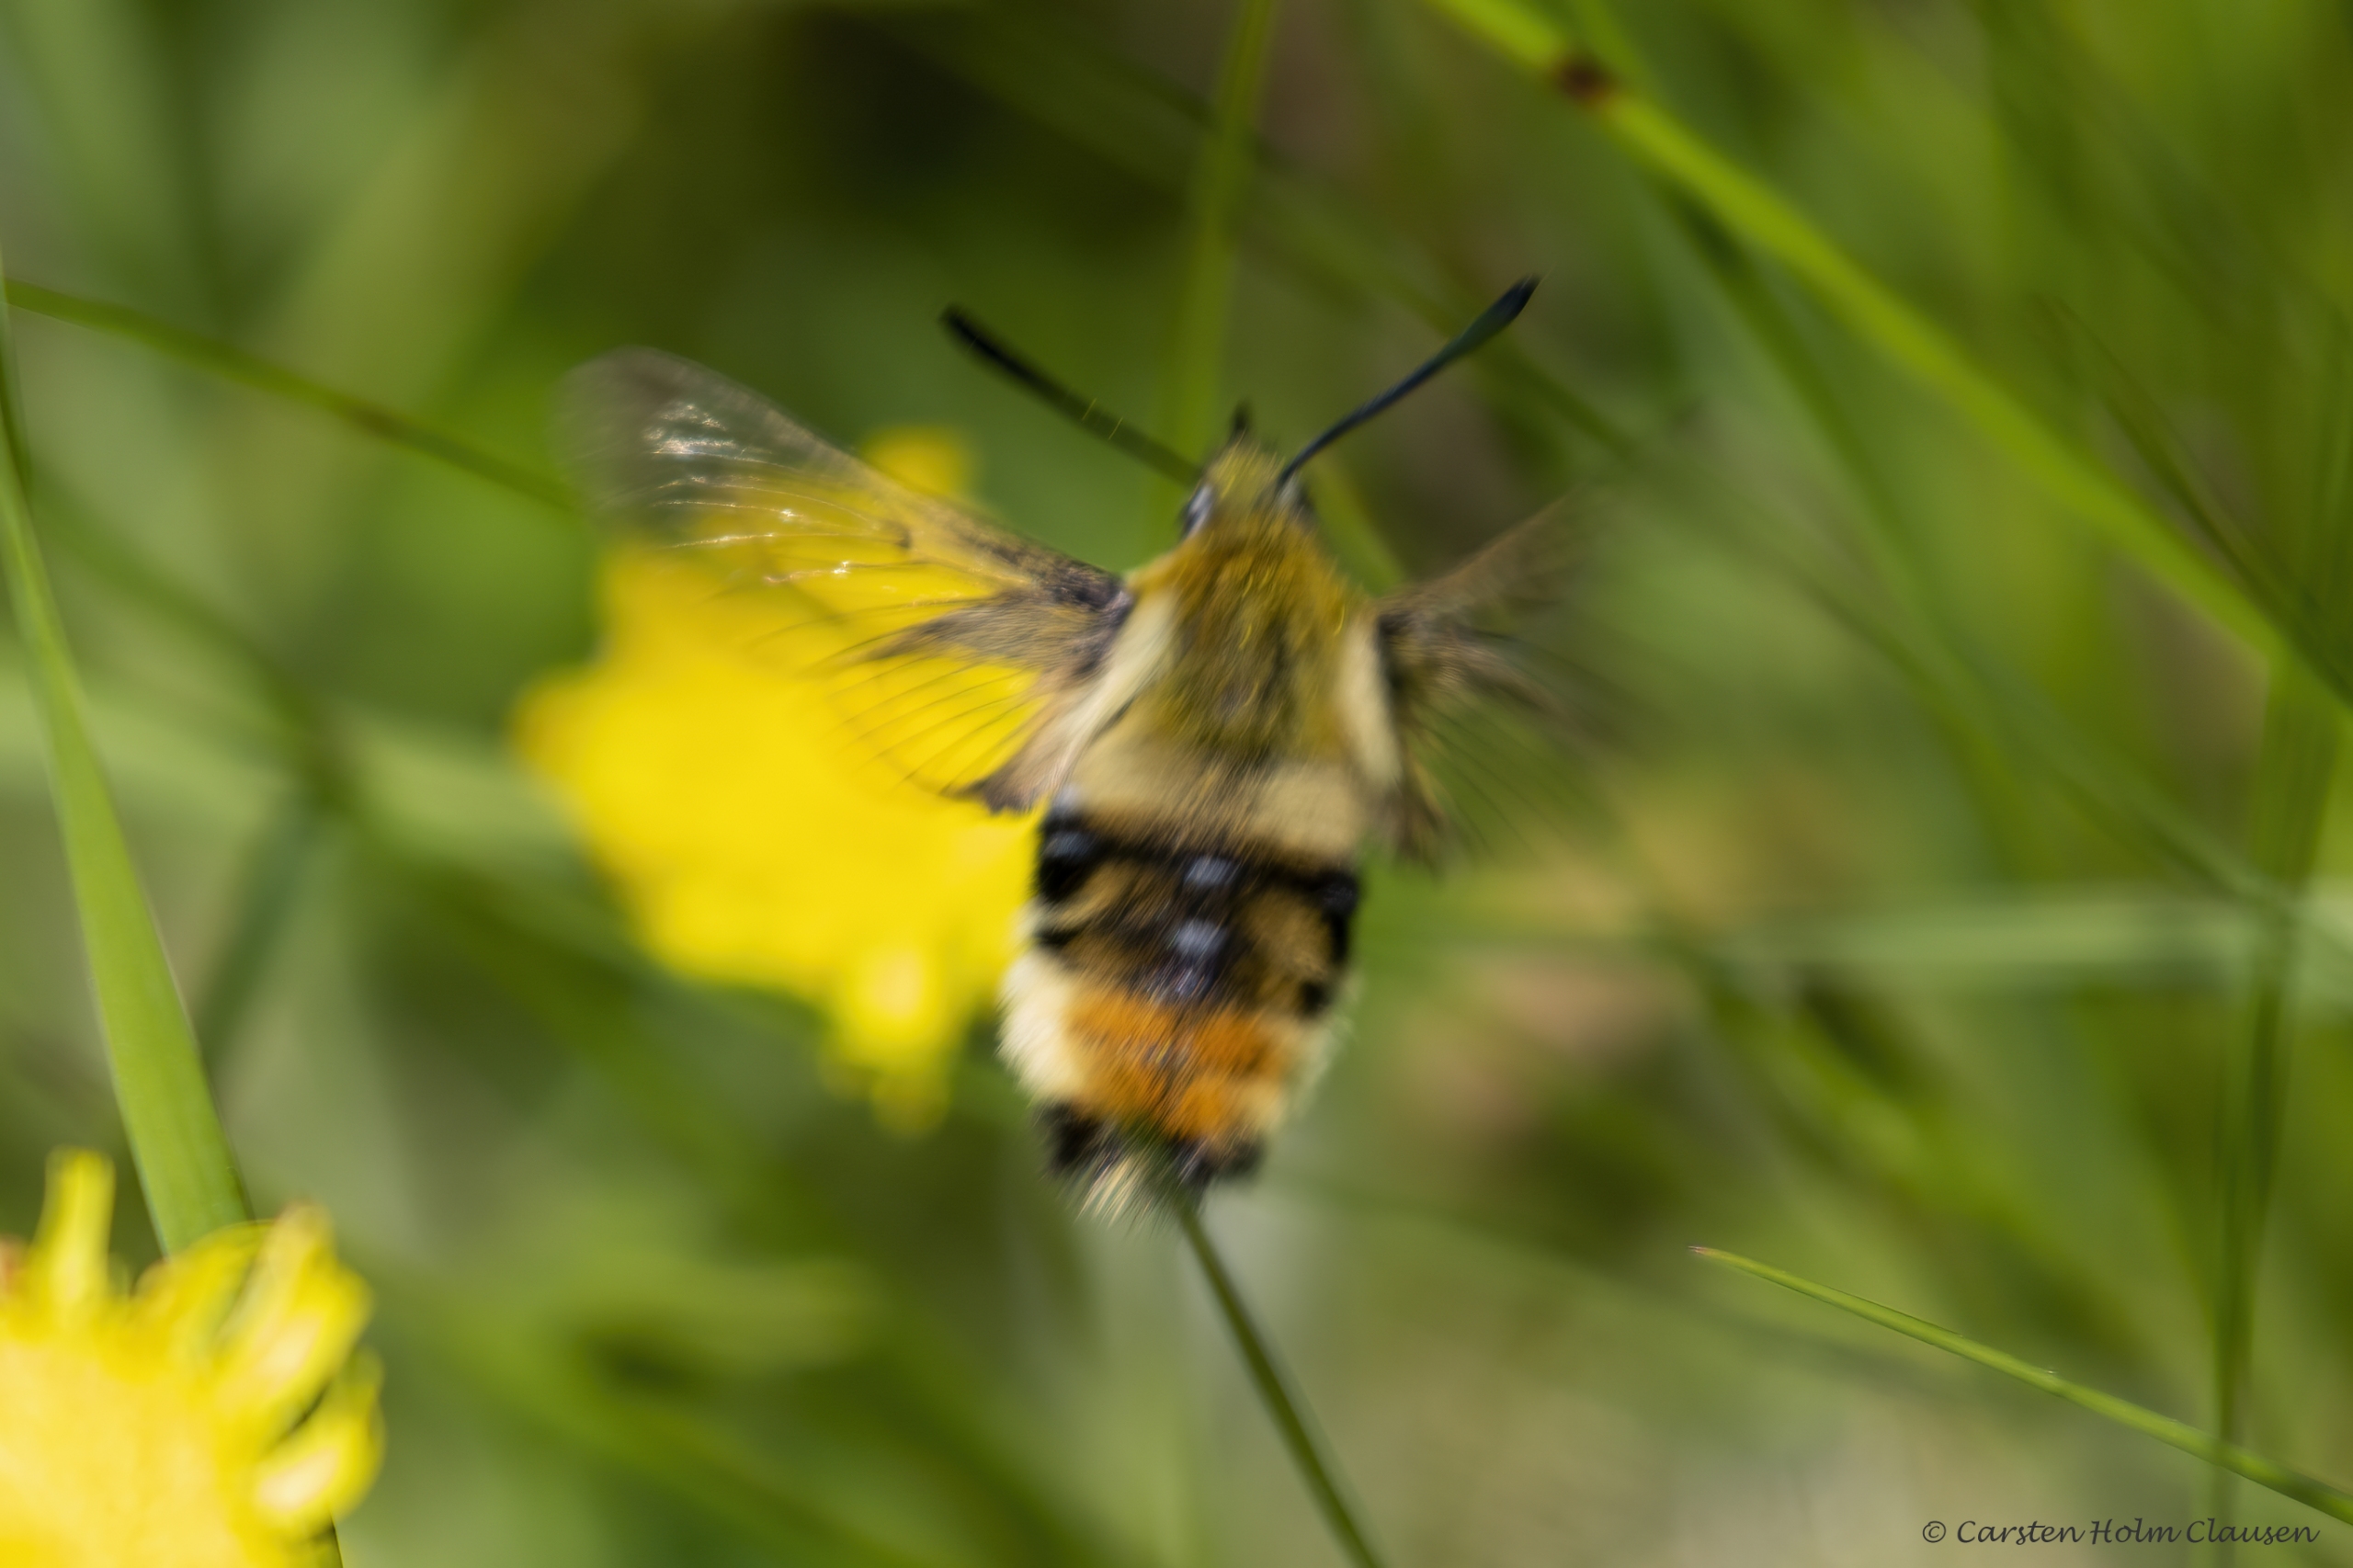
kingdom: Animalia
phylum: Arthropoda
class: Insecta
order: Lepidoptera
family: Sphingidae
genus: Hemaris
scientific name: Hemaris tityus
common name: Smalrandet humlebisværmer
